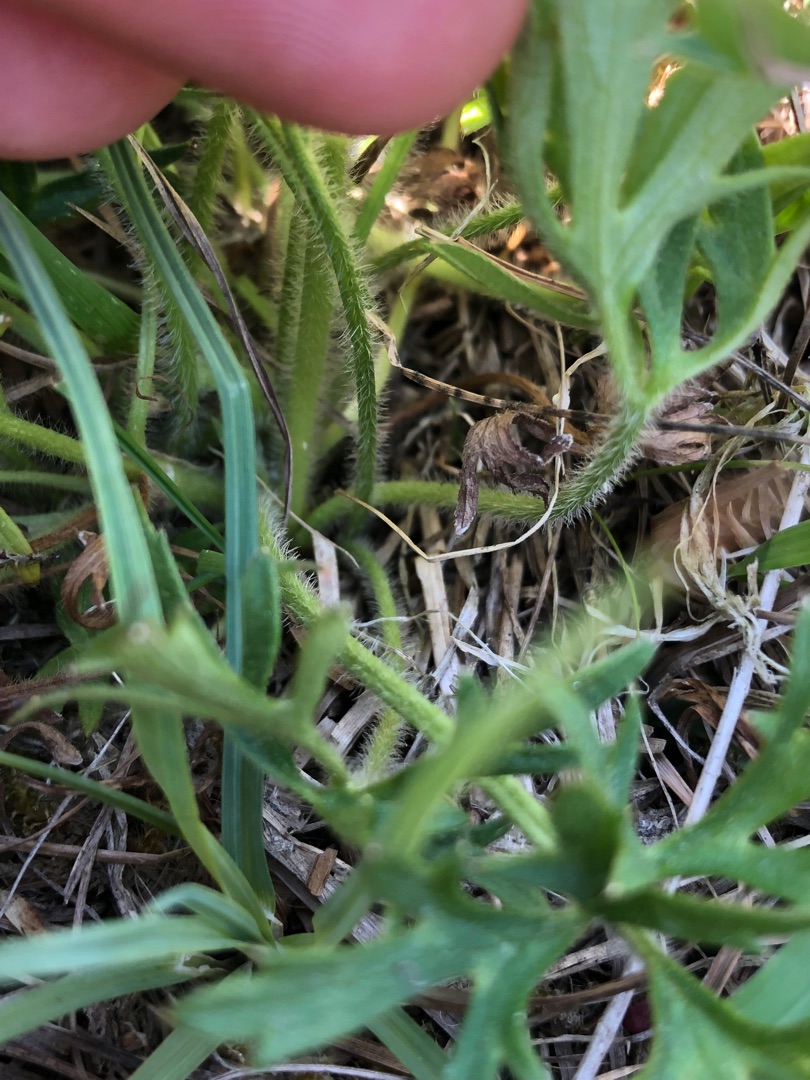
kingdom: Plantae
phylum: Tracheophyta
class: Magnoliopsida
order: Ranunculales
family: Ranunculaceae
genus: Ranunculus
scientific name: Ranunculus polyanthemos
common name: Mangeblomstret ranunkel
